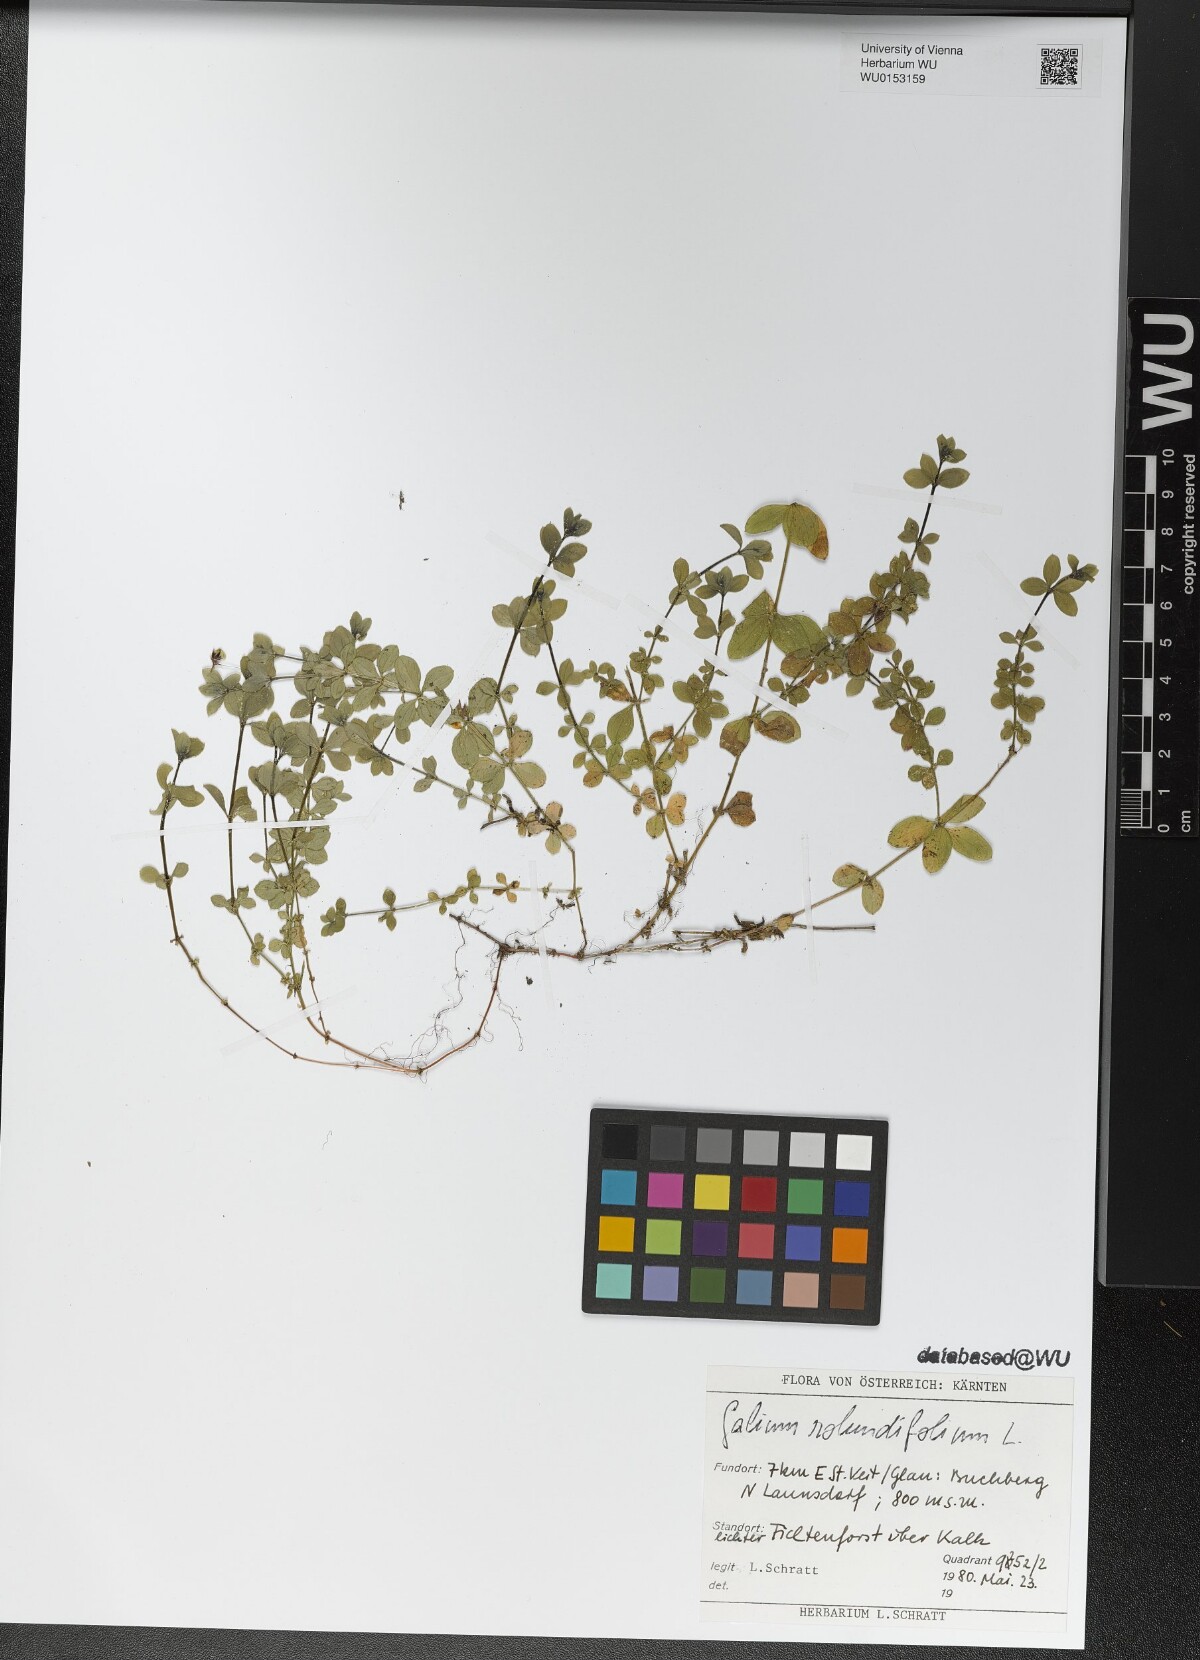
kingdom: Plantae
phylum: Tracheophyta
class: Magnoliopsida
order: Gentianales
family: Rubiaceae
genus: Galium
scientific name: Galium rotundifolium
